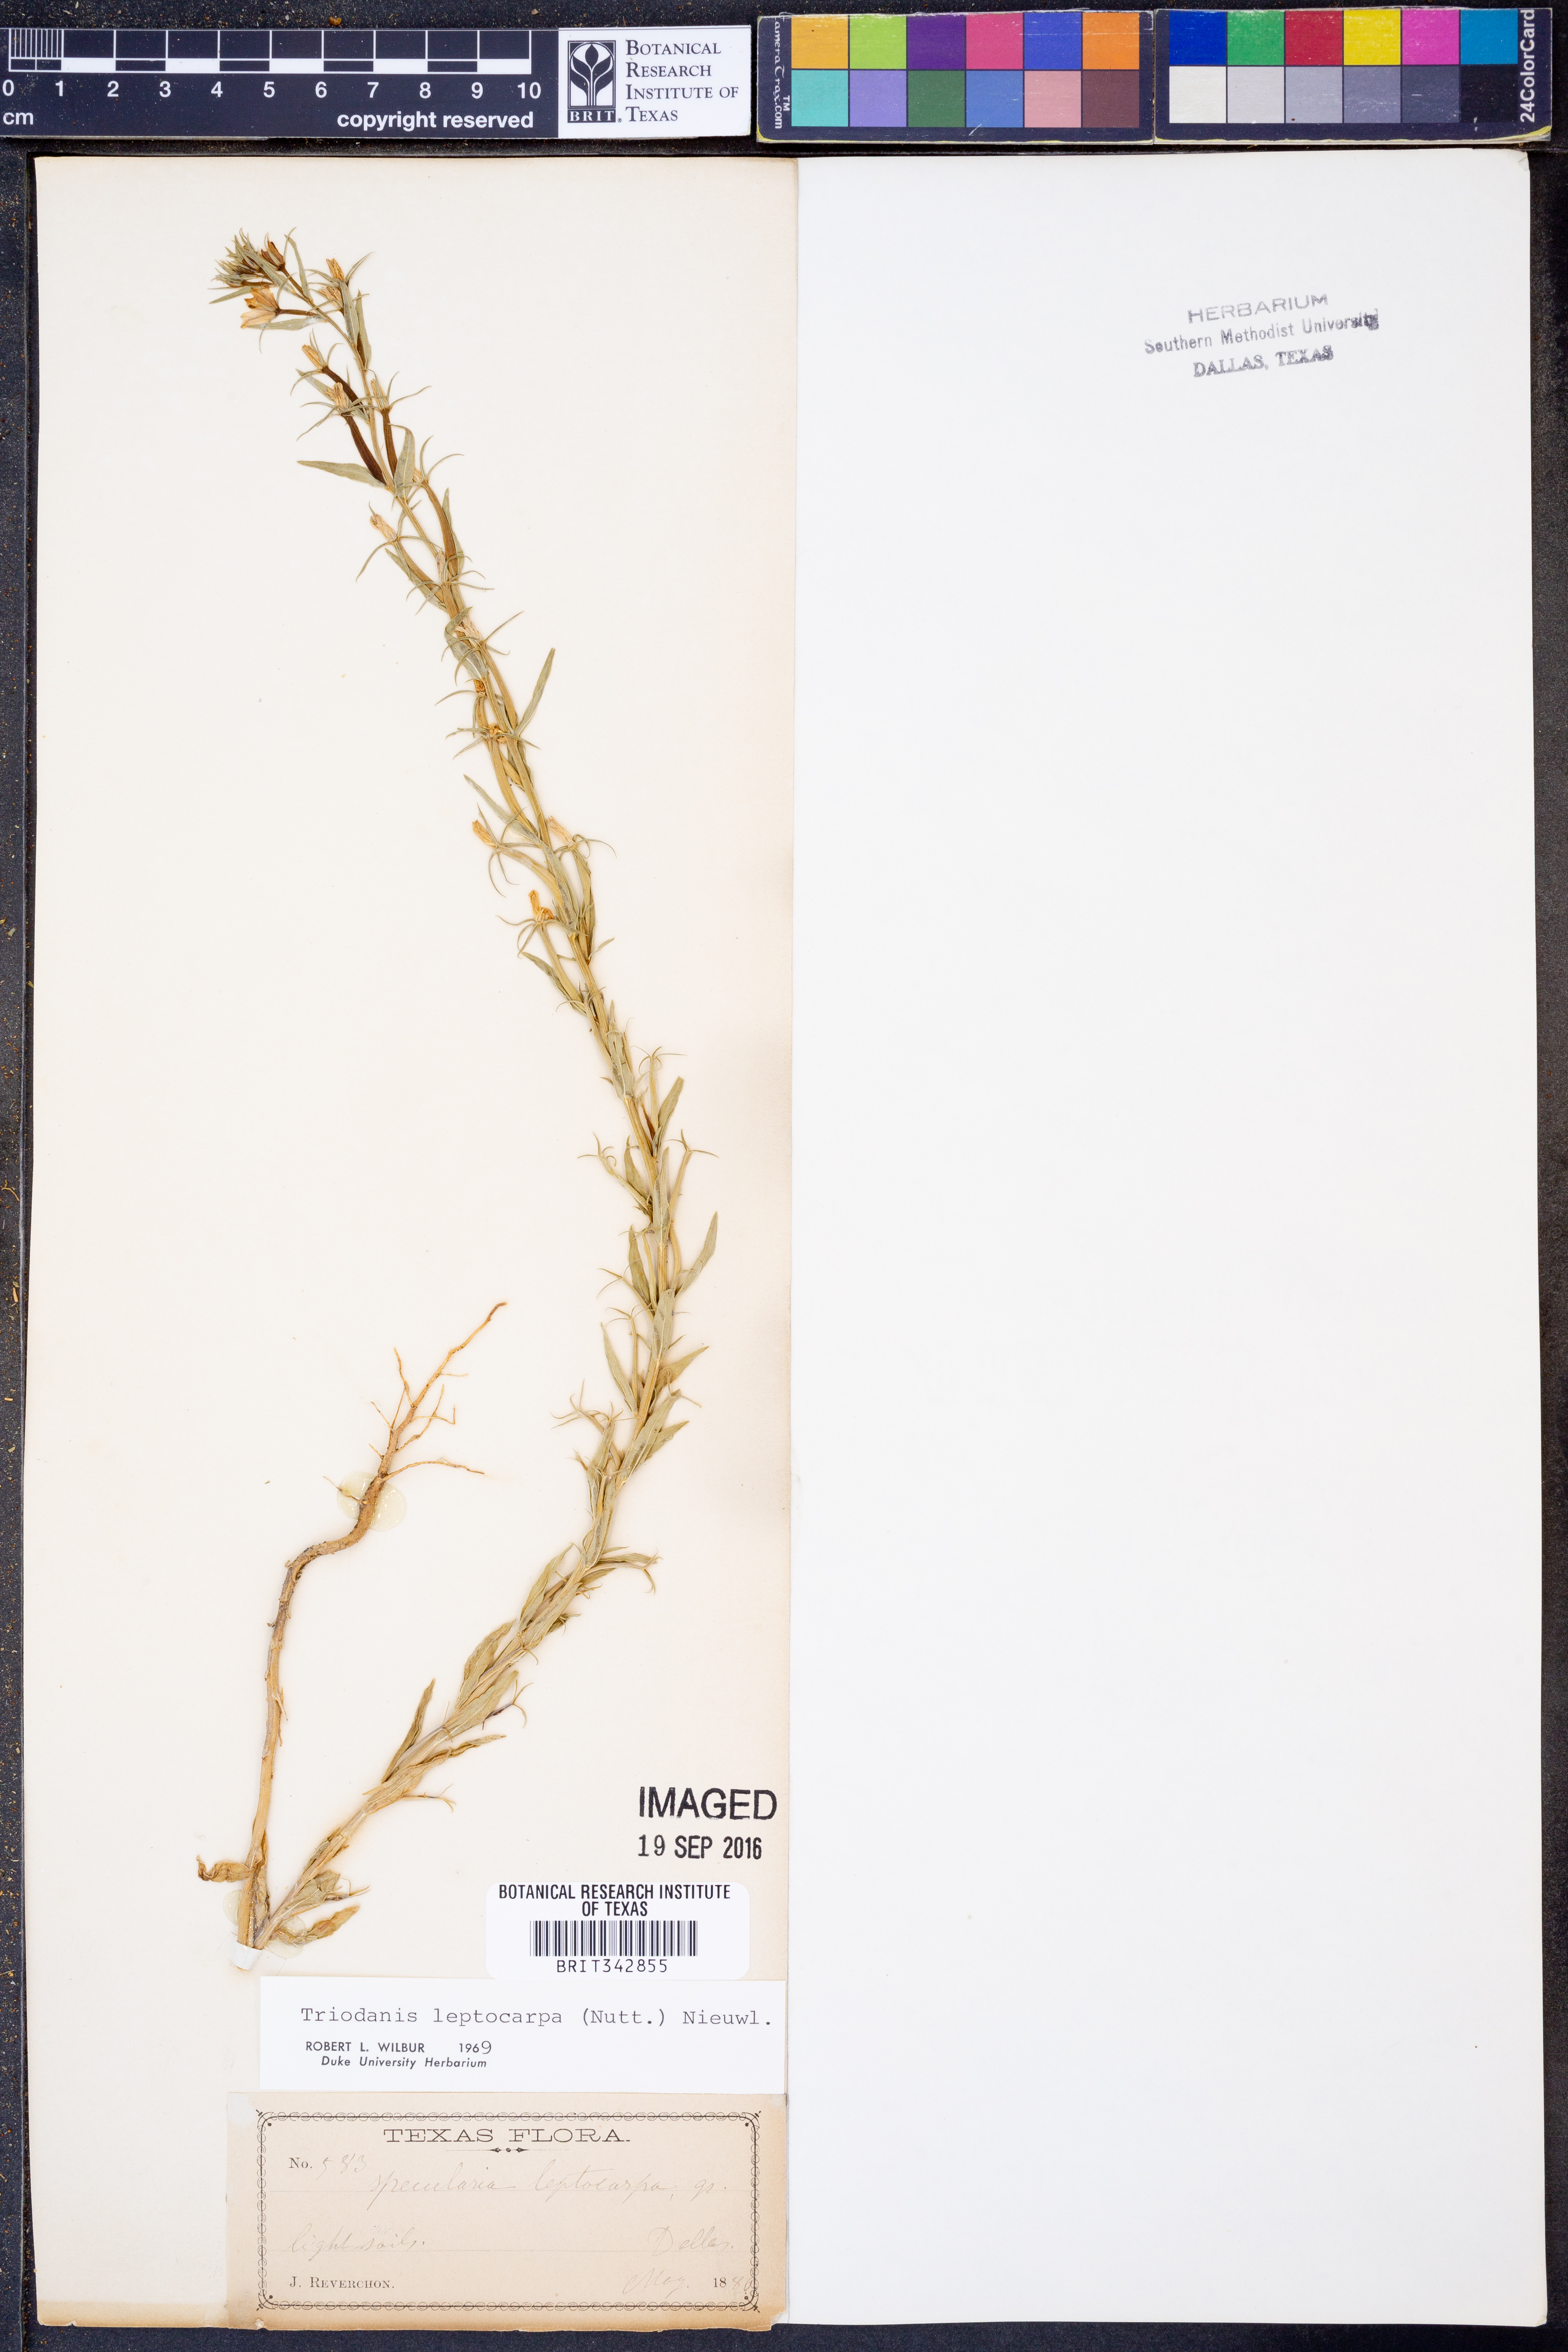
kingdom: Plantae
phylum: Tracheophyta
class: Magnoliopsida
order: Asterales
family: Campanulaceae
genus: Triodanis
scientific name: Triodanis leptocarpa
